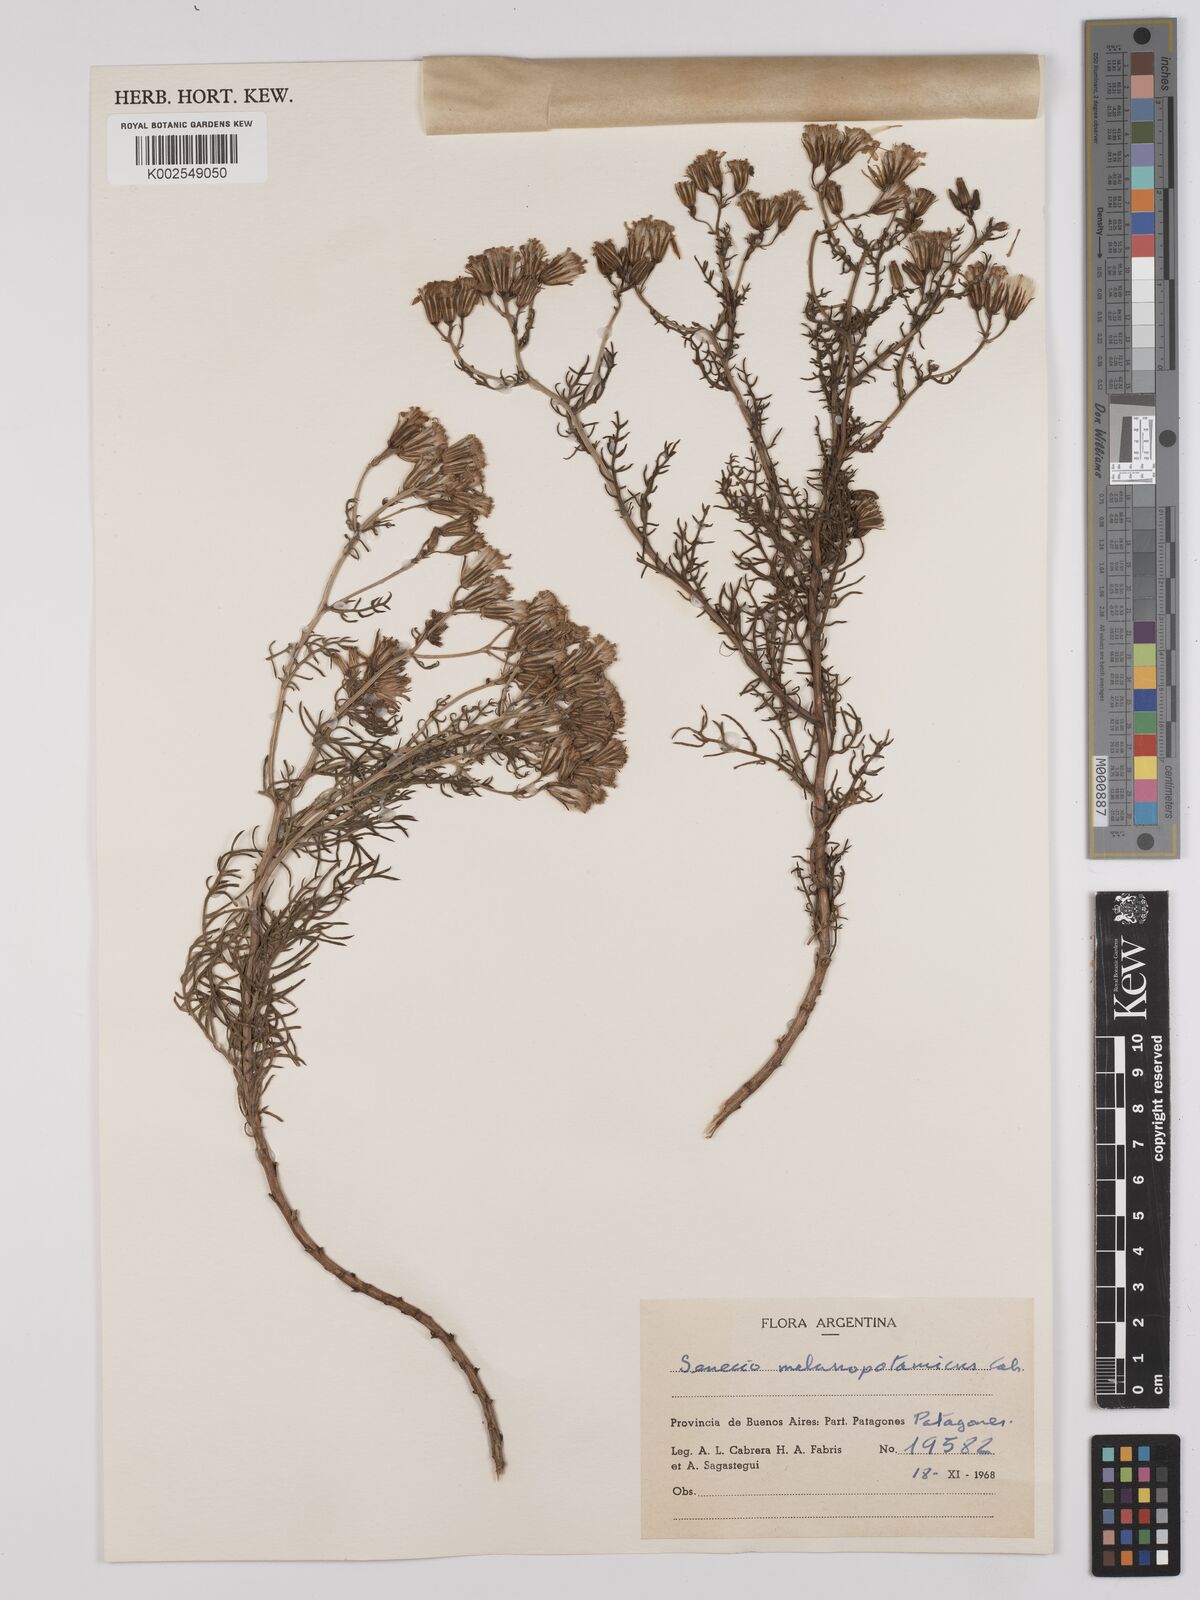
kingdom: Plantae
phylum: Tracheophyta
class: Magnoliopsida
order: Asterales
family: Asteraceae
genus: Senecio
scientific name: Senecio melanopotamicus
